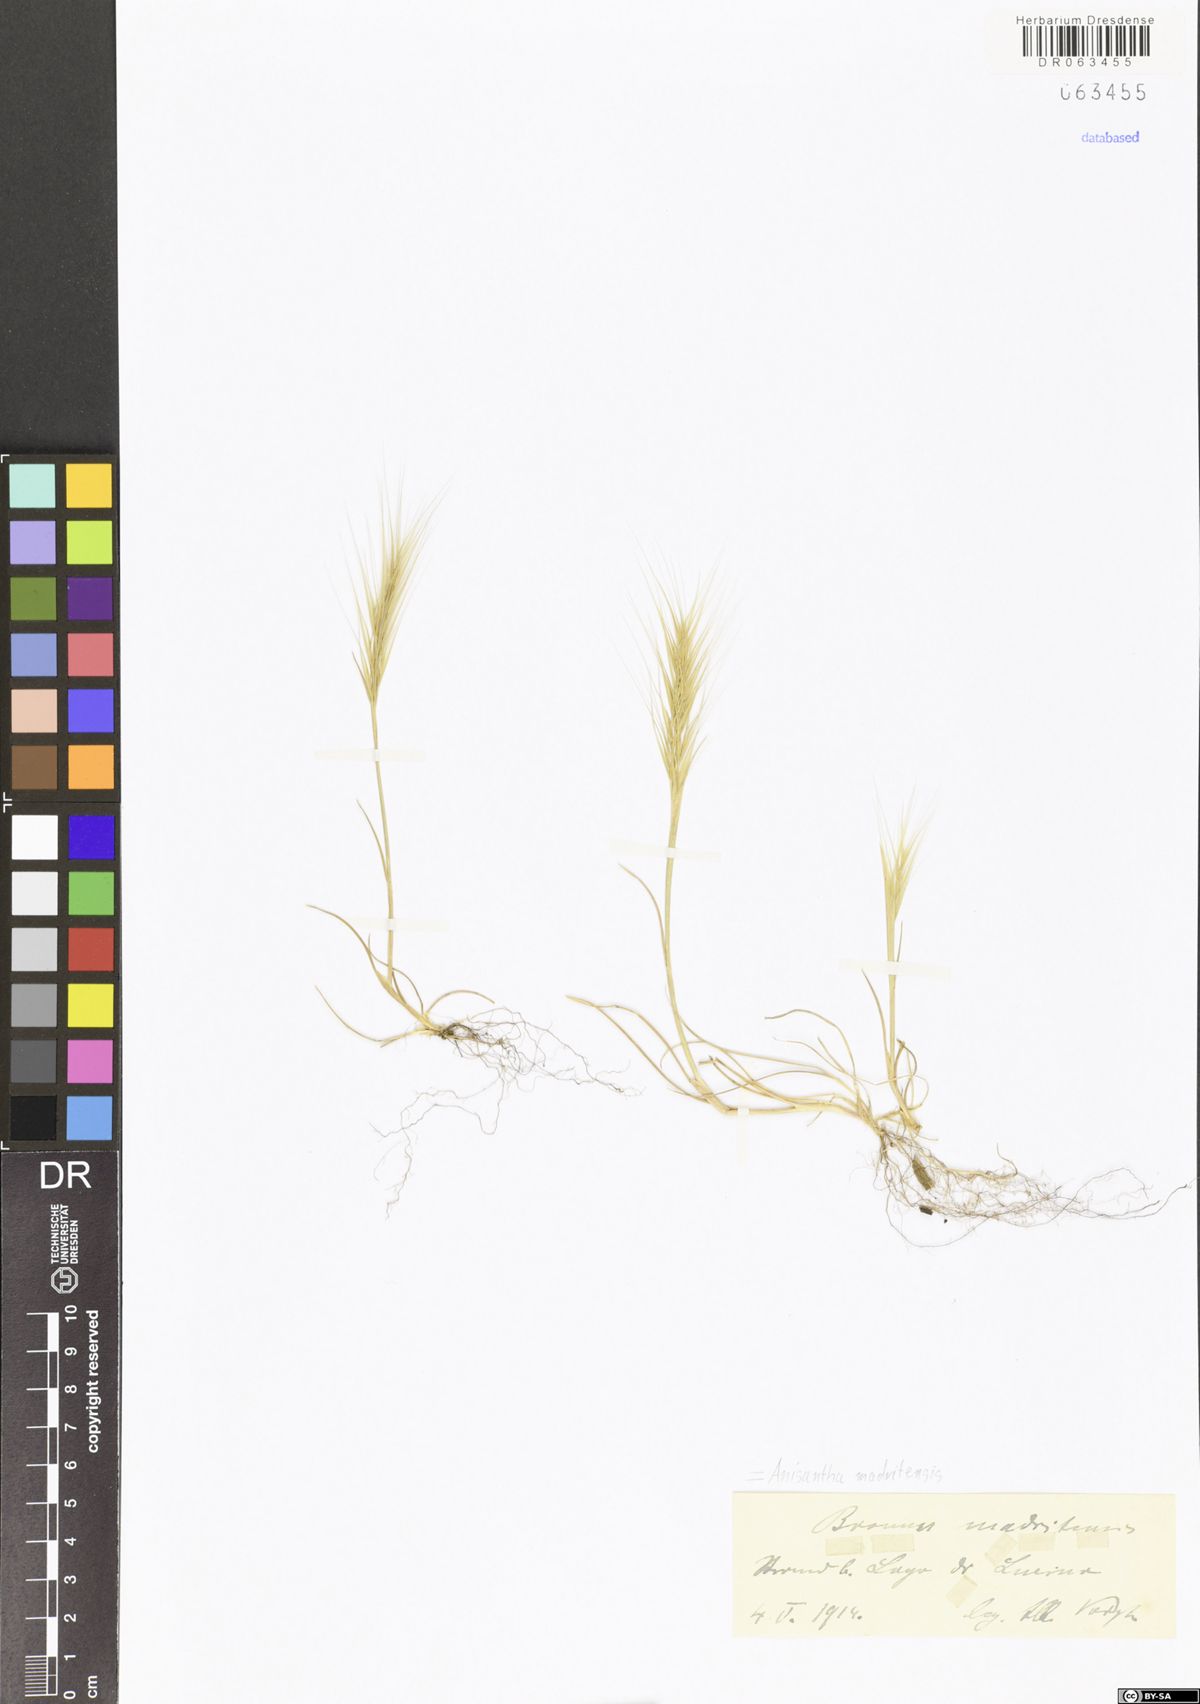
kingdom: Plantae
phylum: Tracheophyta
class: Liliopsida
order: Poales
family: Poaceae
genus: Bromus
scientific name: Bromus madritensis
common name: Compact brome
